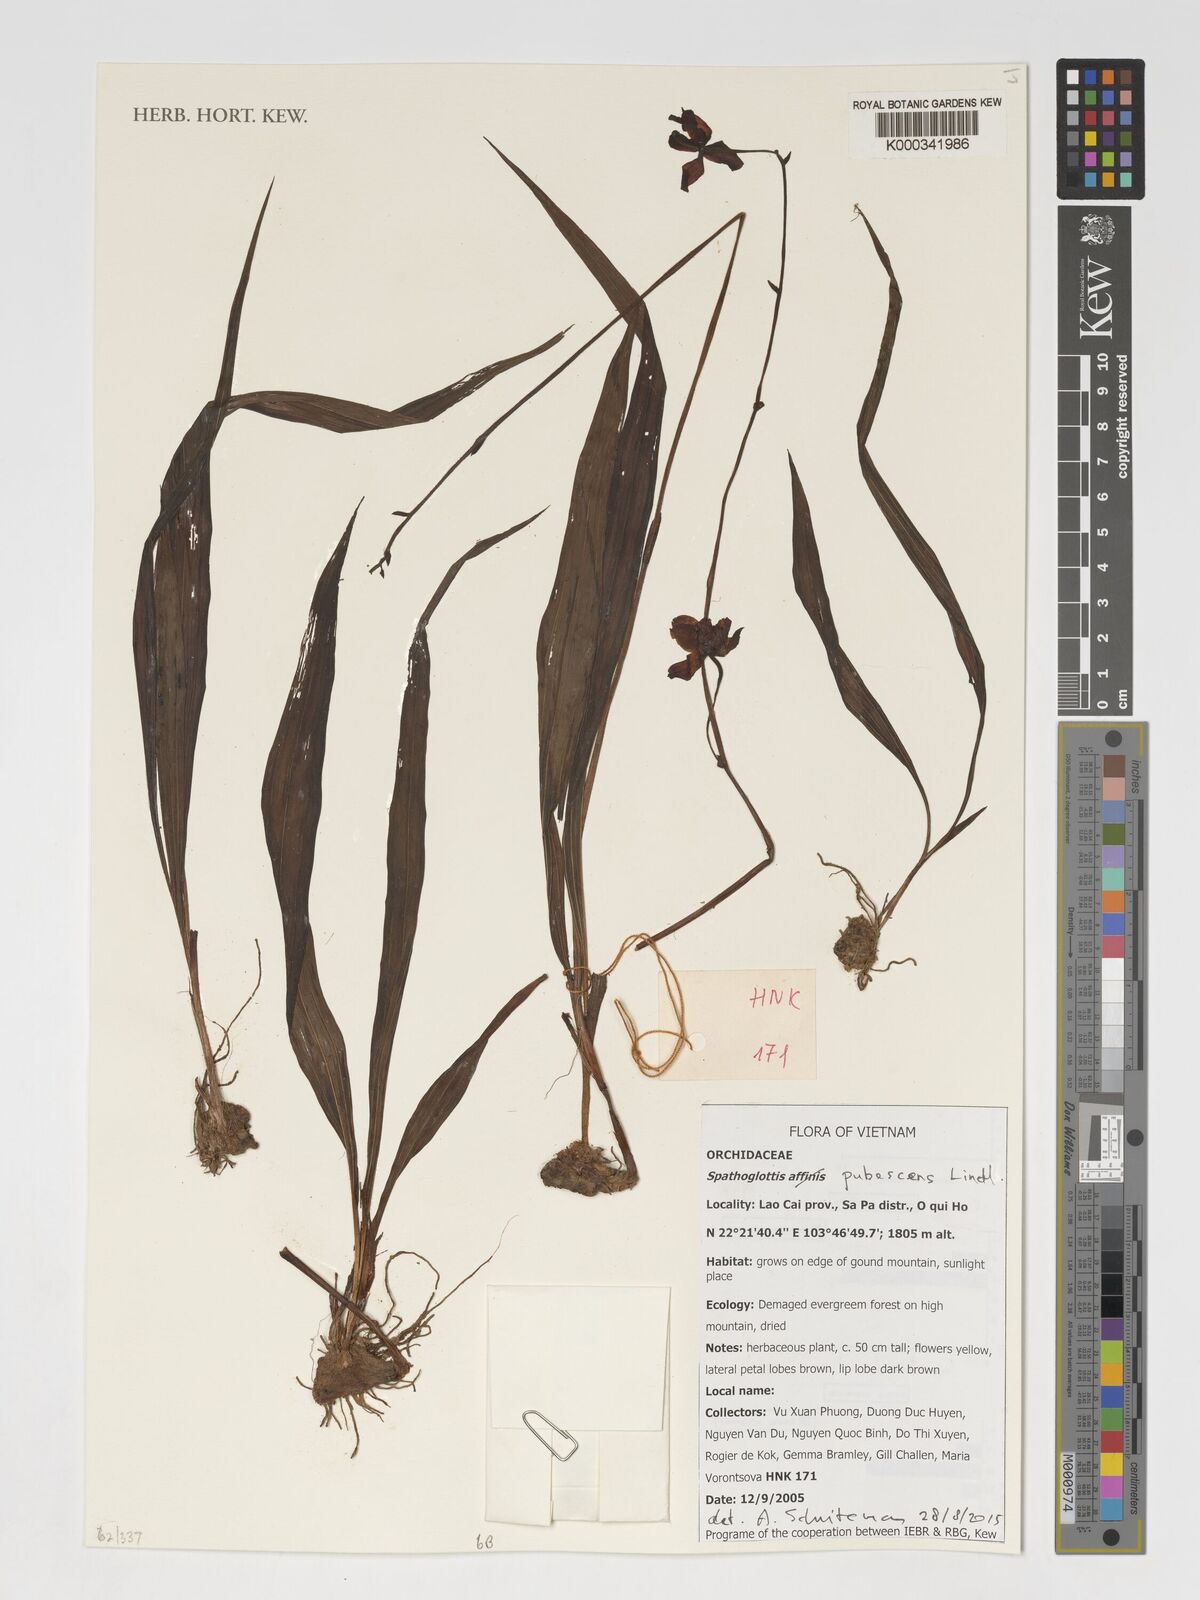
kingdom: Plantae
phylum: Tracheophyta
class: Liliopsida
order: Asparagales
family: Orchidaceae
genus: Spathoglottis
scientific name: Spathoglottis pubescens
